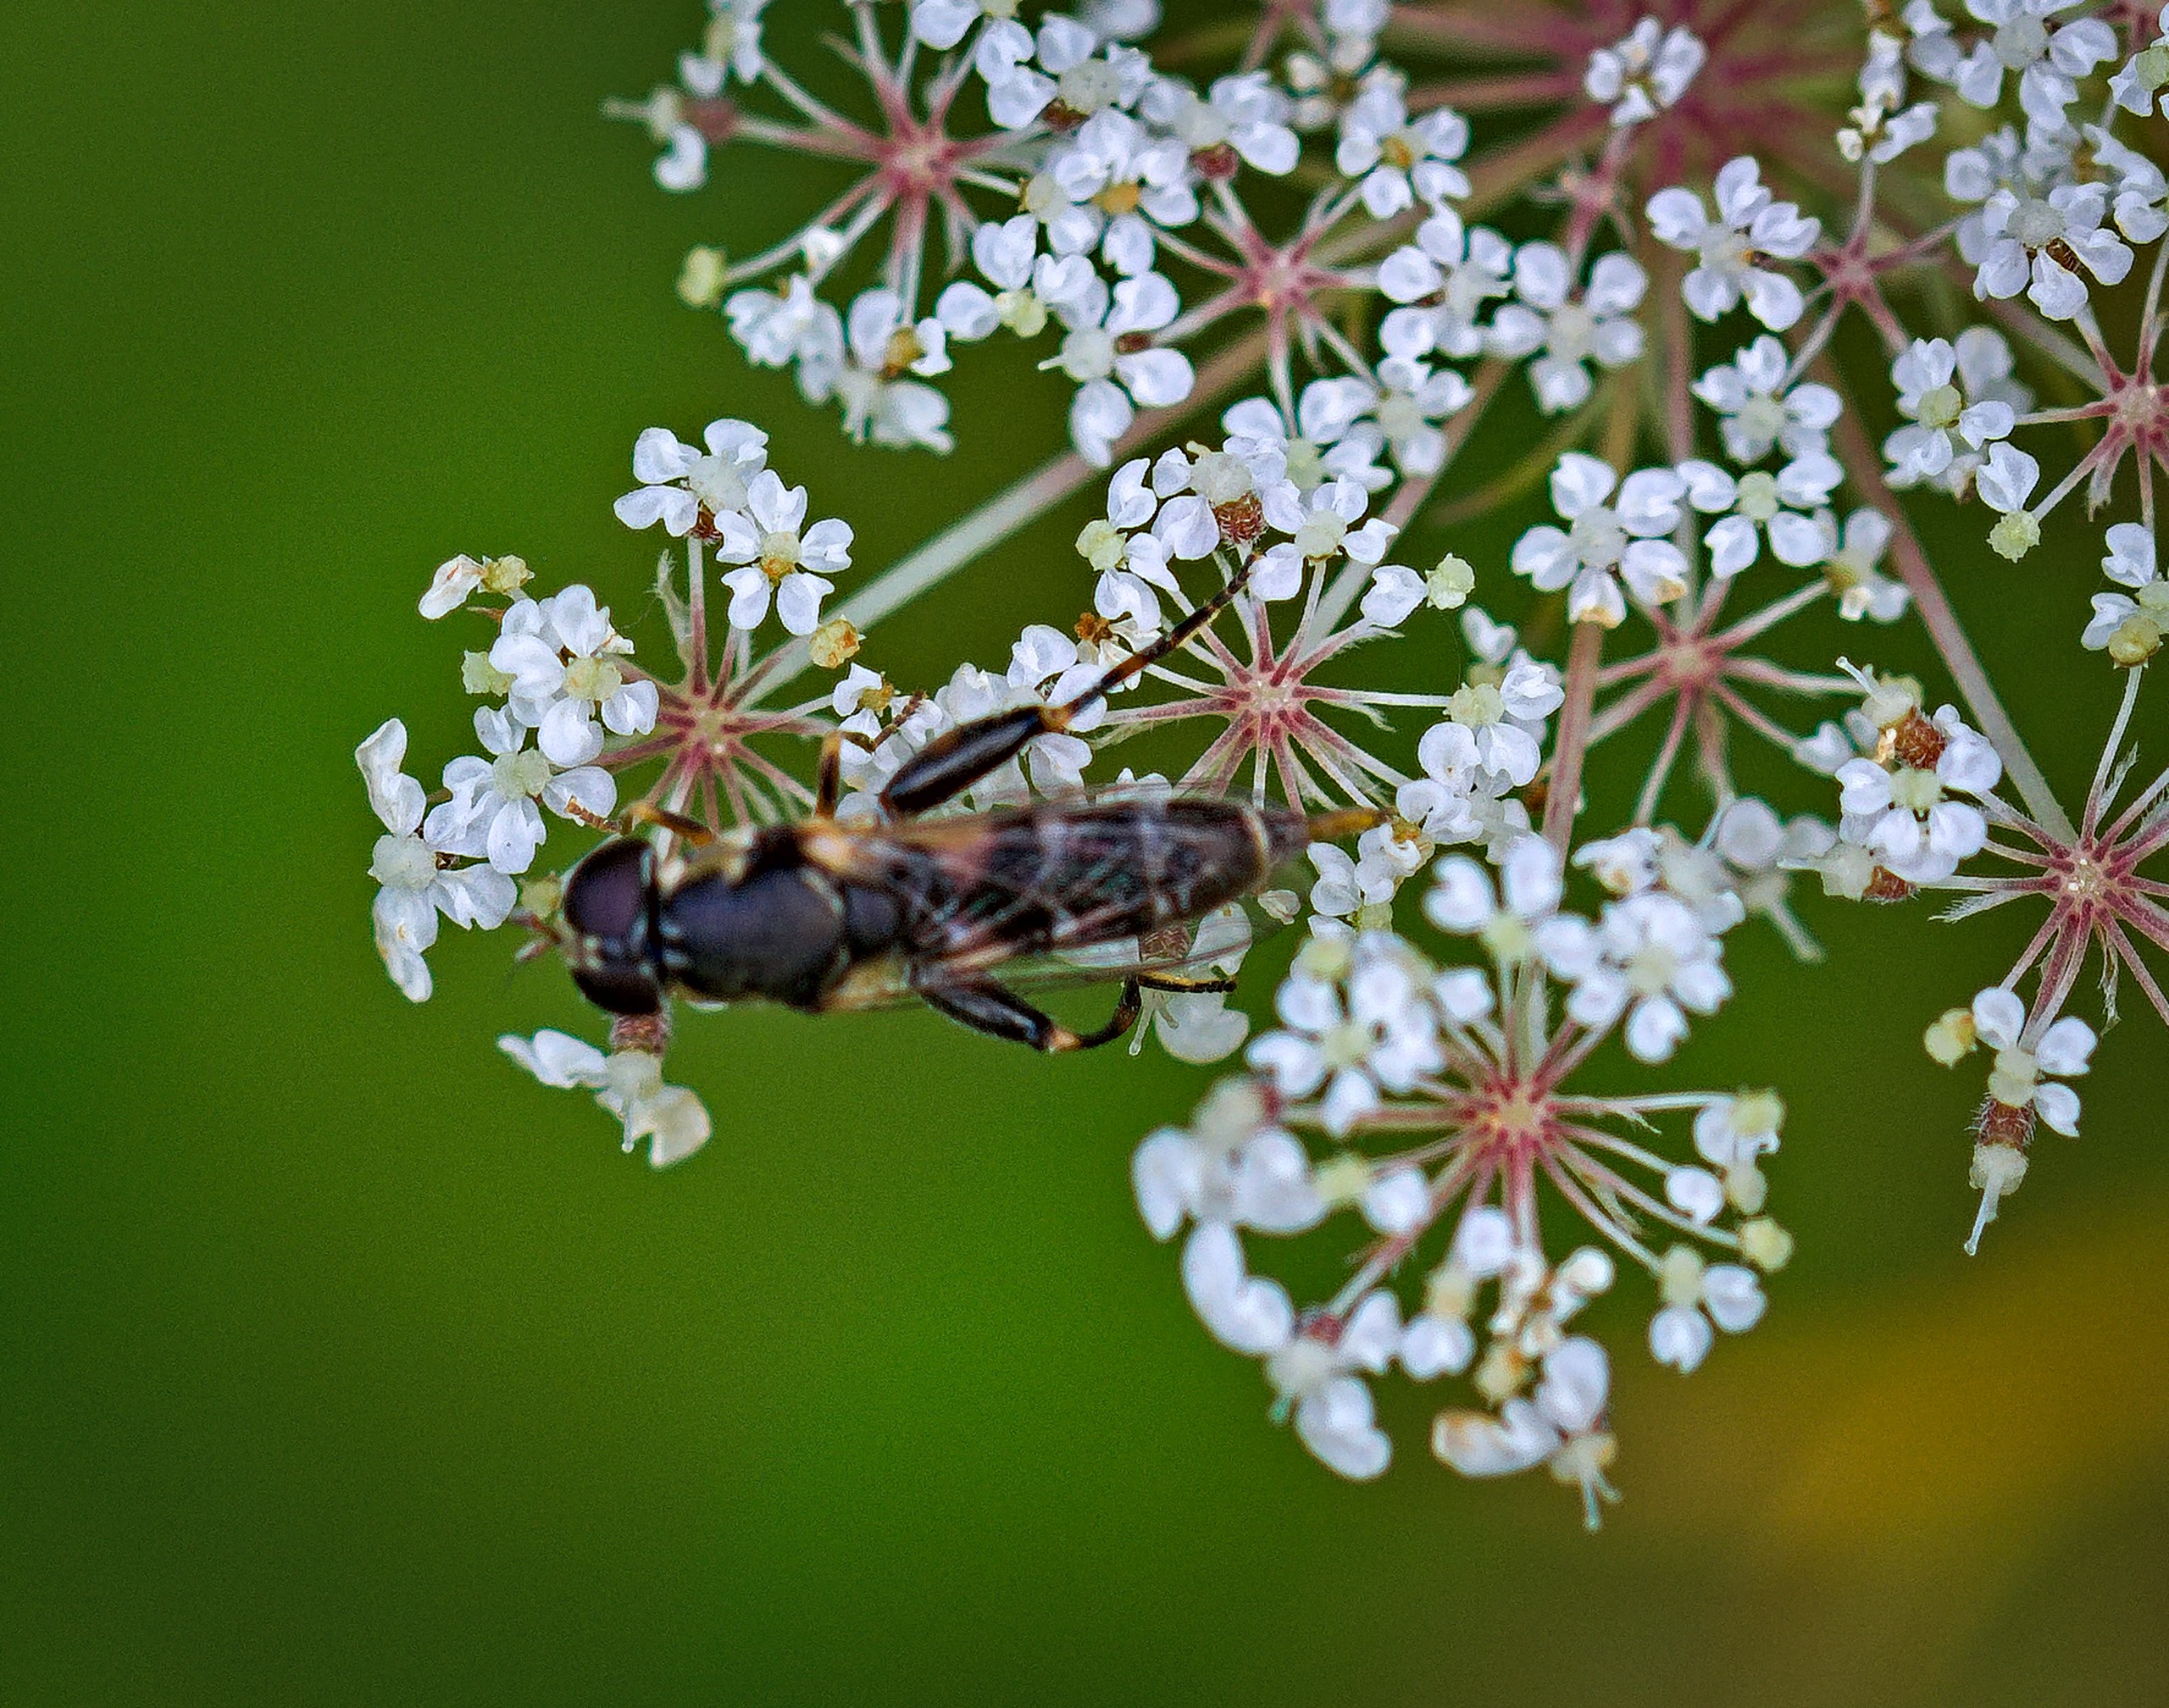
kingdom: Animalia
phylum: Arthropoda
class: Insecta
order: Diptera
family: Syrphidae
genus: Syritta
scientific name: Syritta pipiens
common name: Kompost-svirreflue
